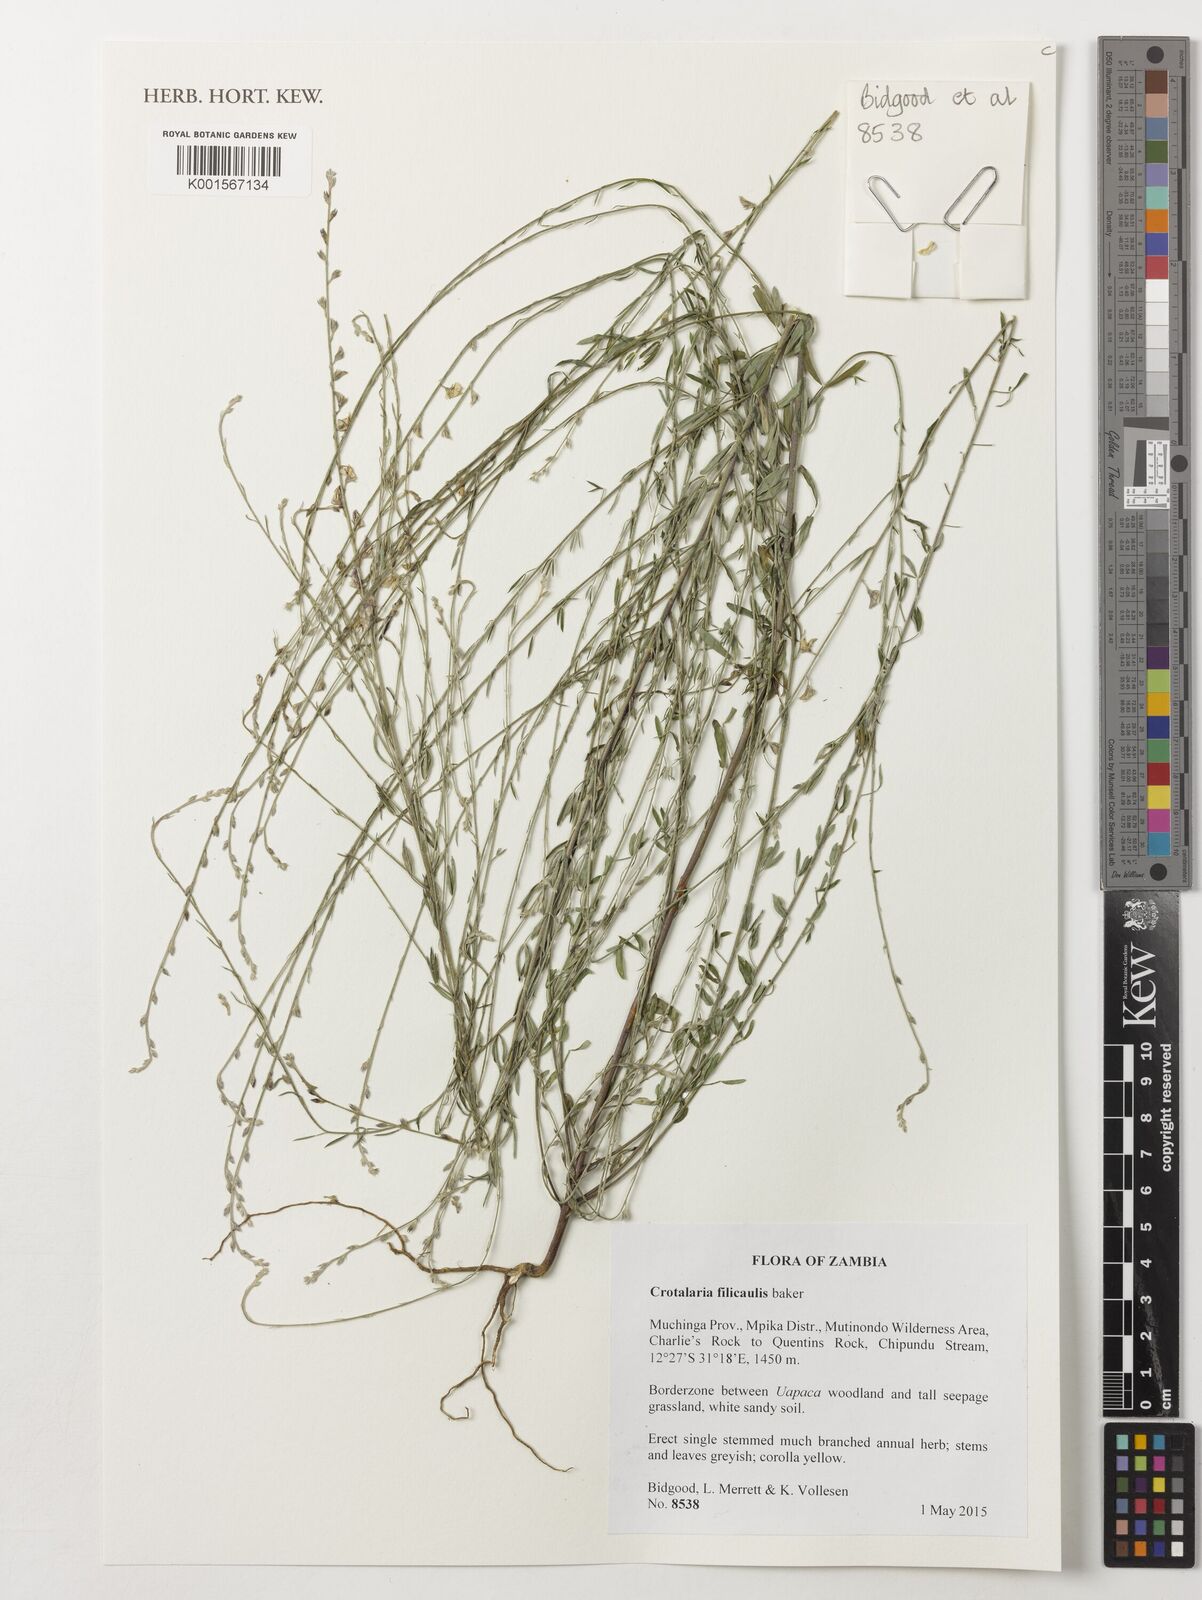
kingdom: Plantae
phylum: Tracheophyta
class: Magnoliopsida
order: Fabales
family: Fabaceae
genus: Crotalaria
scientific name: Crotalaria filicaulis
